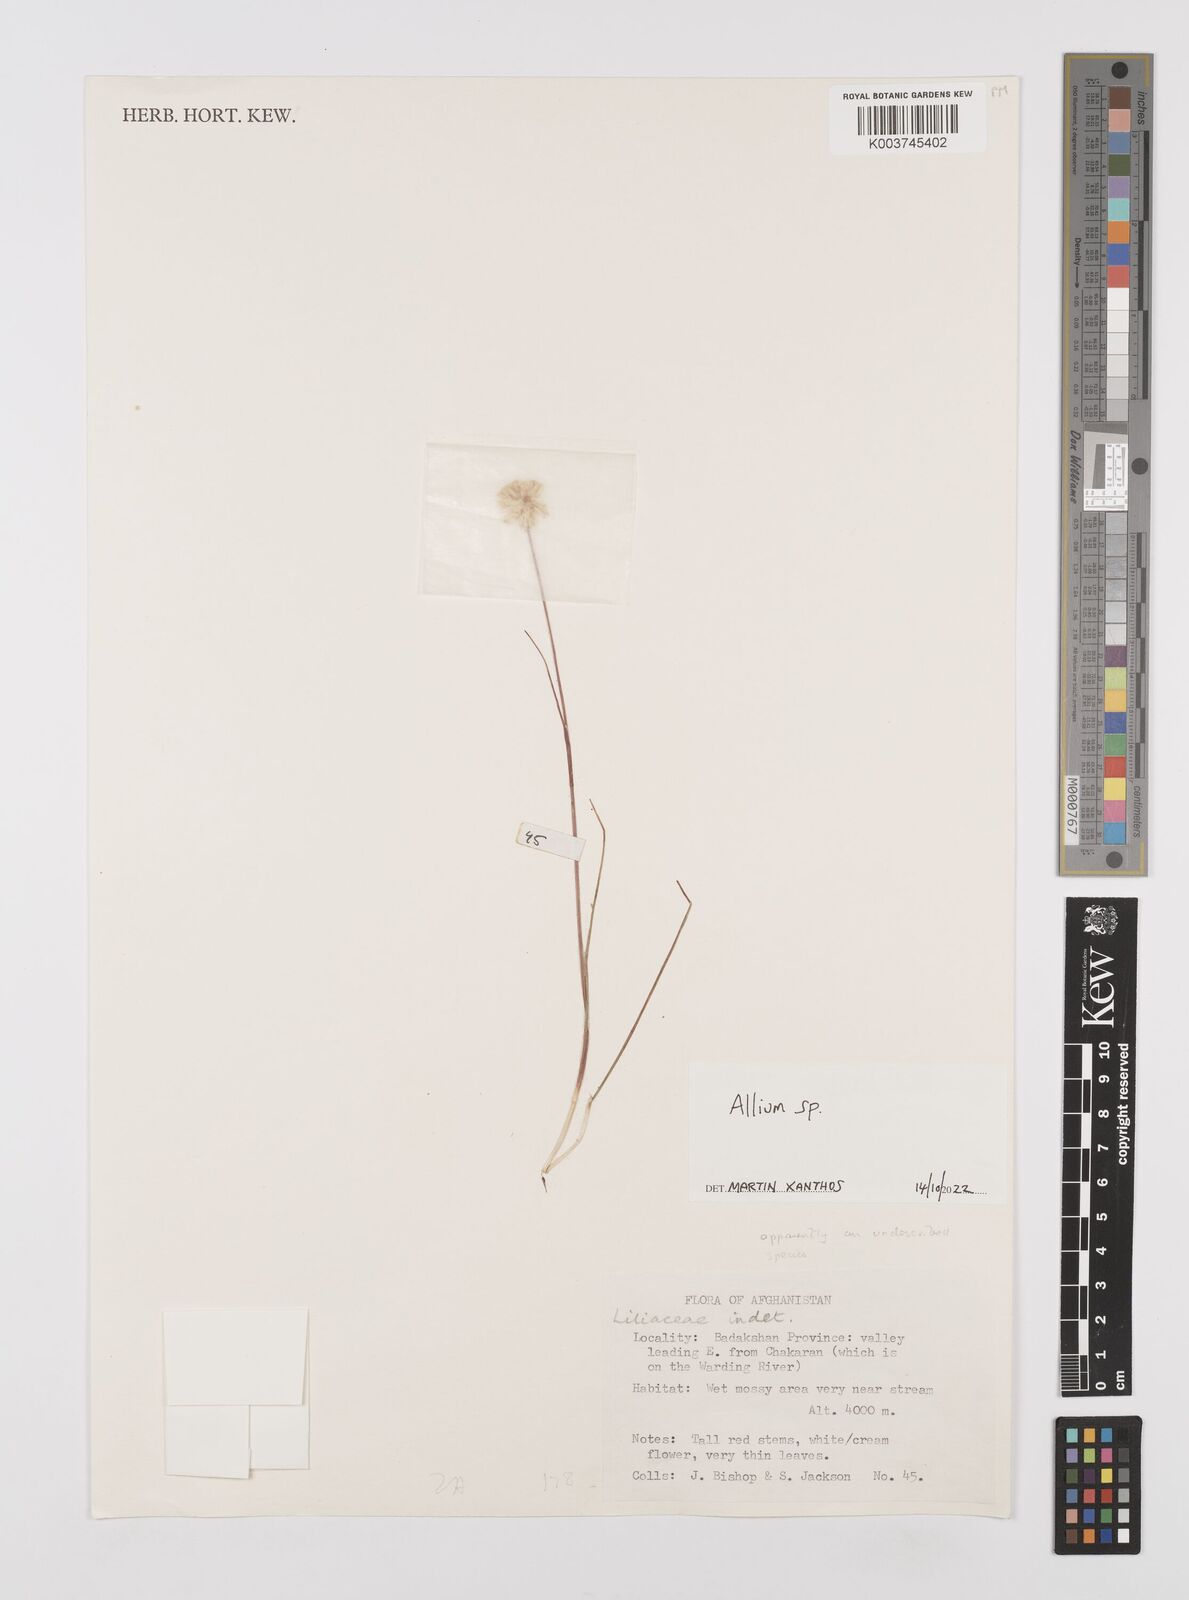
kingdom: Plantae
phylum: Tracheophyta
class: Liliopsida
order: Asparagales
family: Amaryllidaceae
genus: Allium
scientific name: Allium
